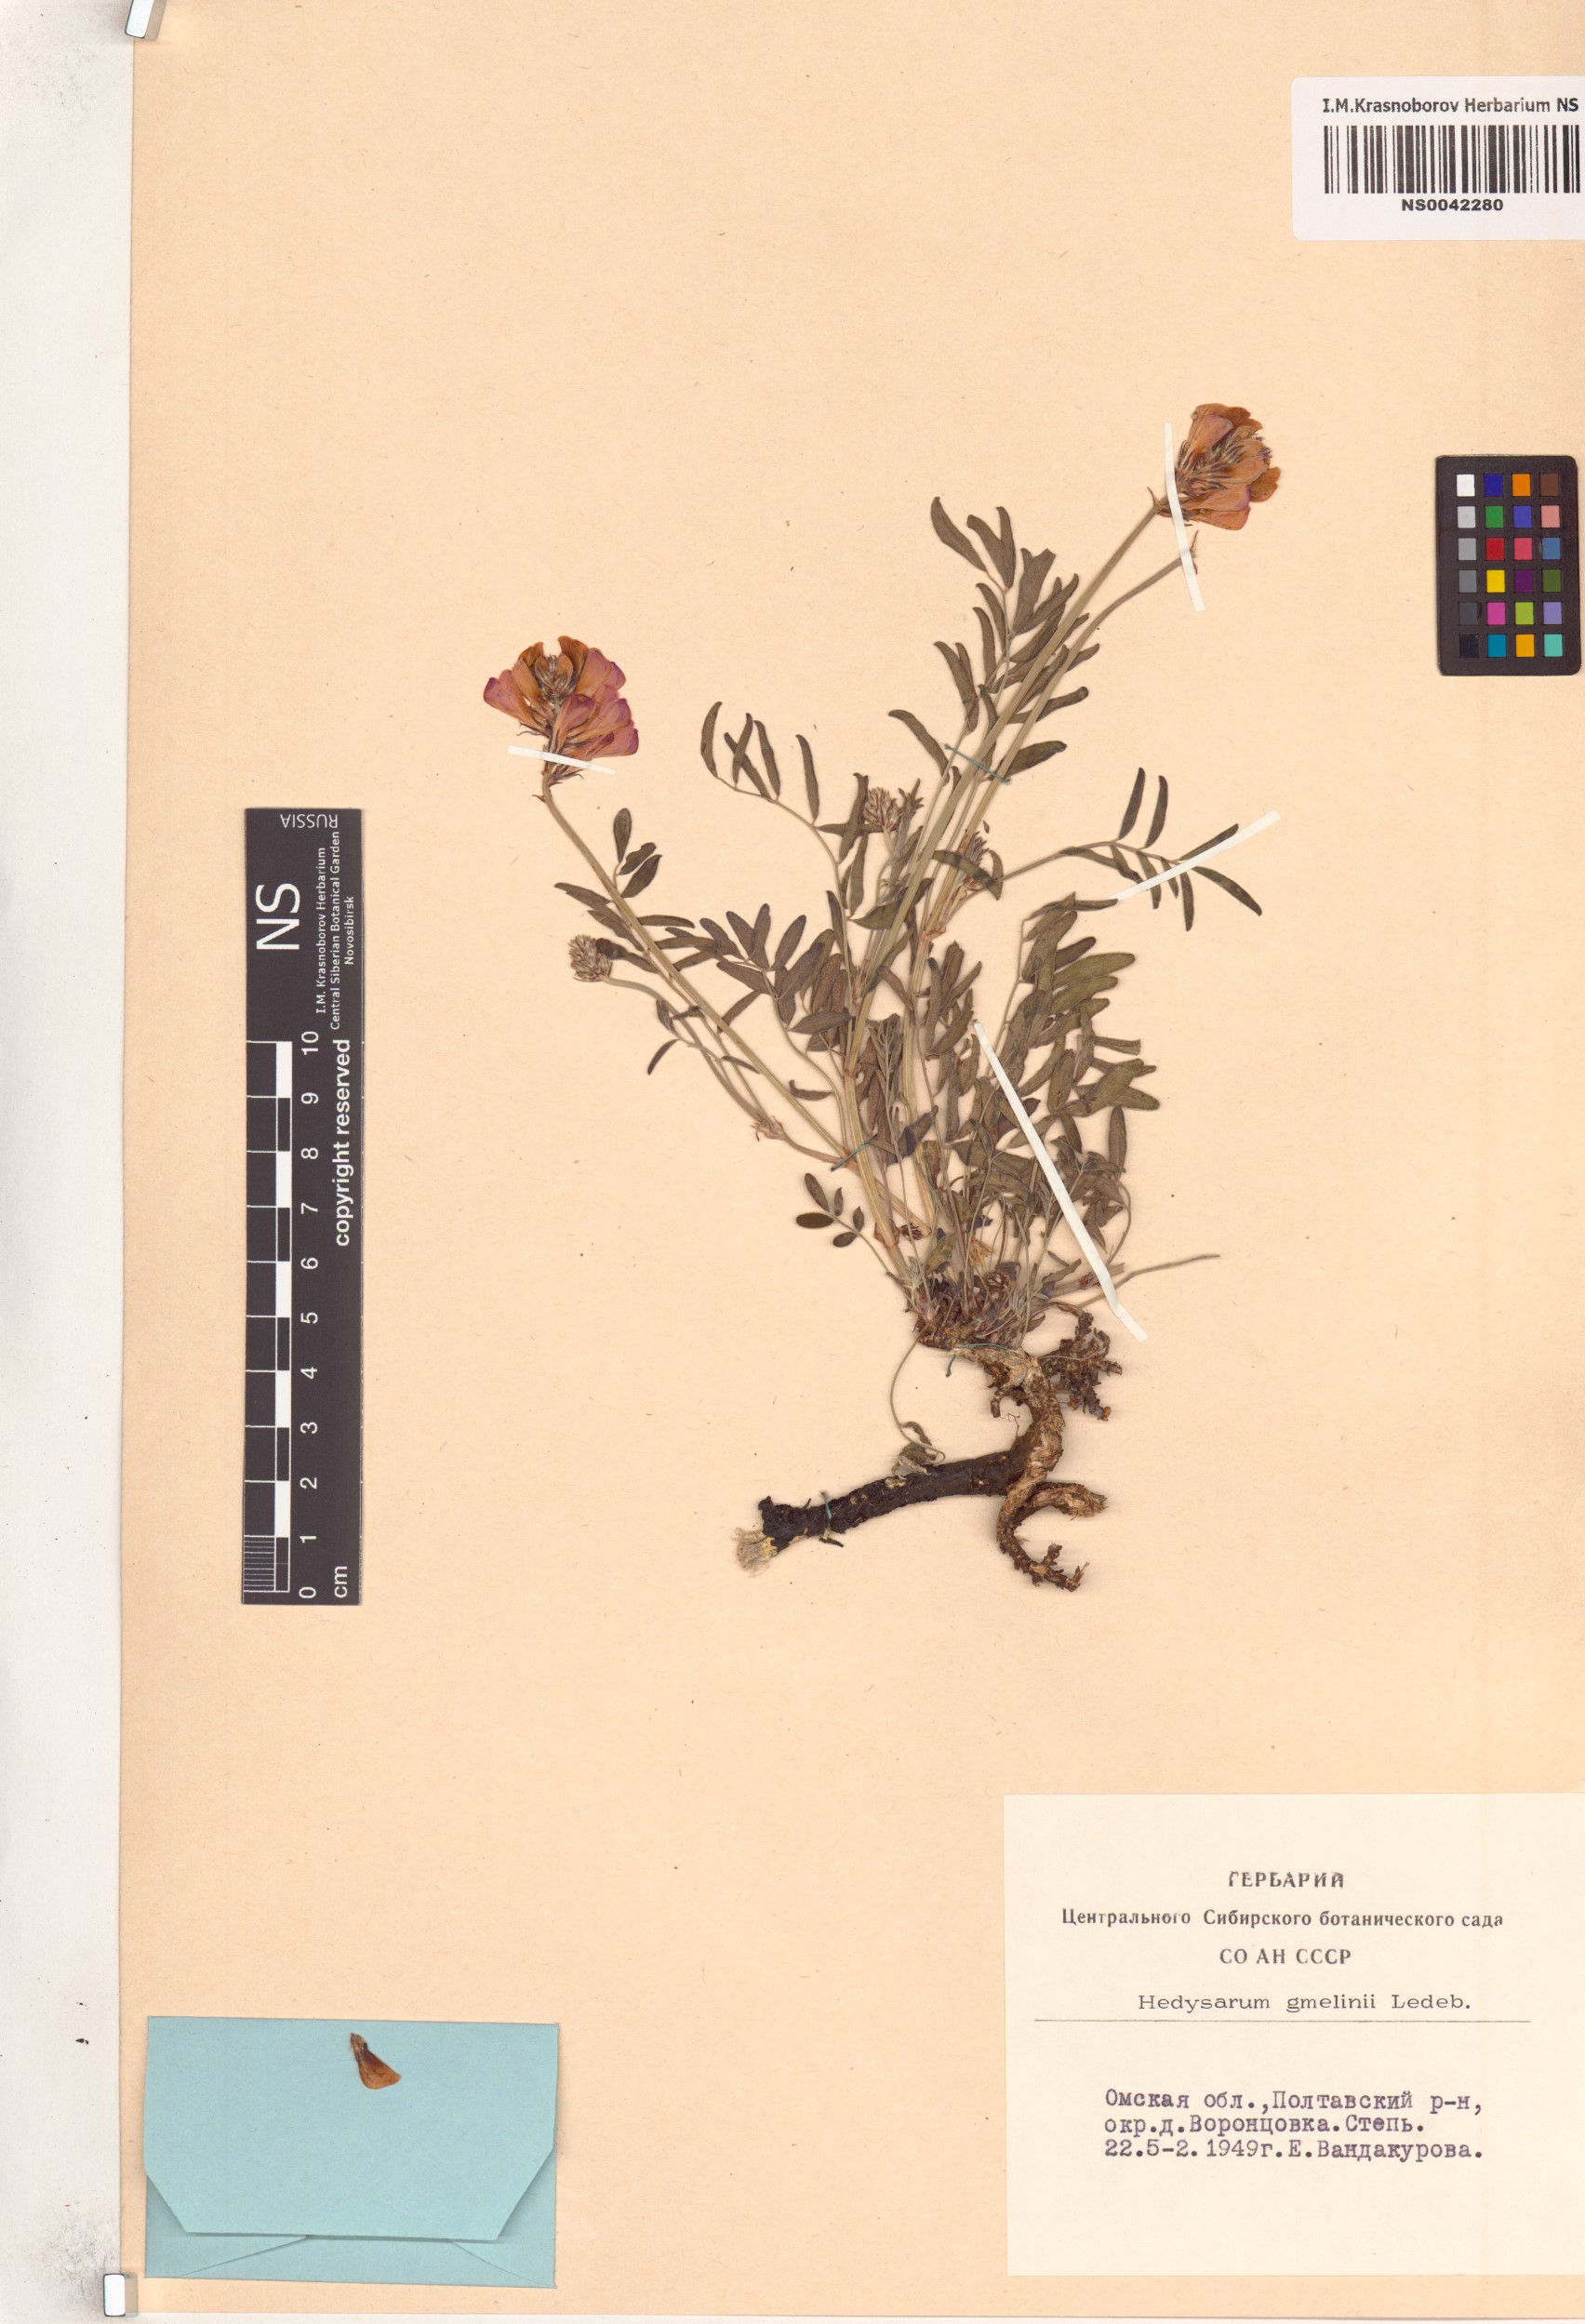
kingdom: Plantae
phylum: Tracheophyta
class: Magnoliopsida
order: Fabales
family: Fabaceae
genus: Hedysarum
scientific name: Hedysarum gmelinii
